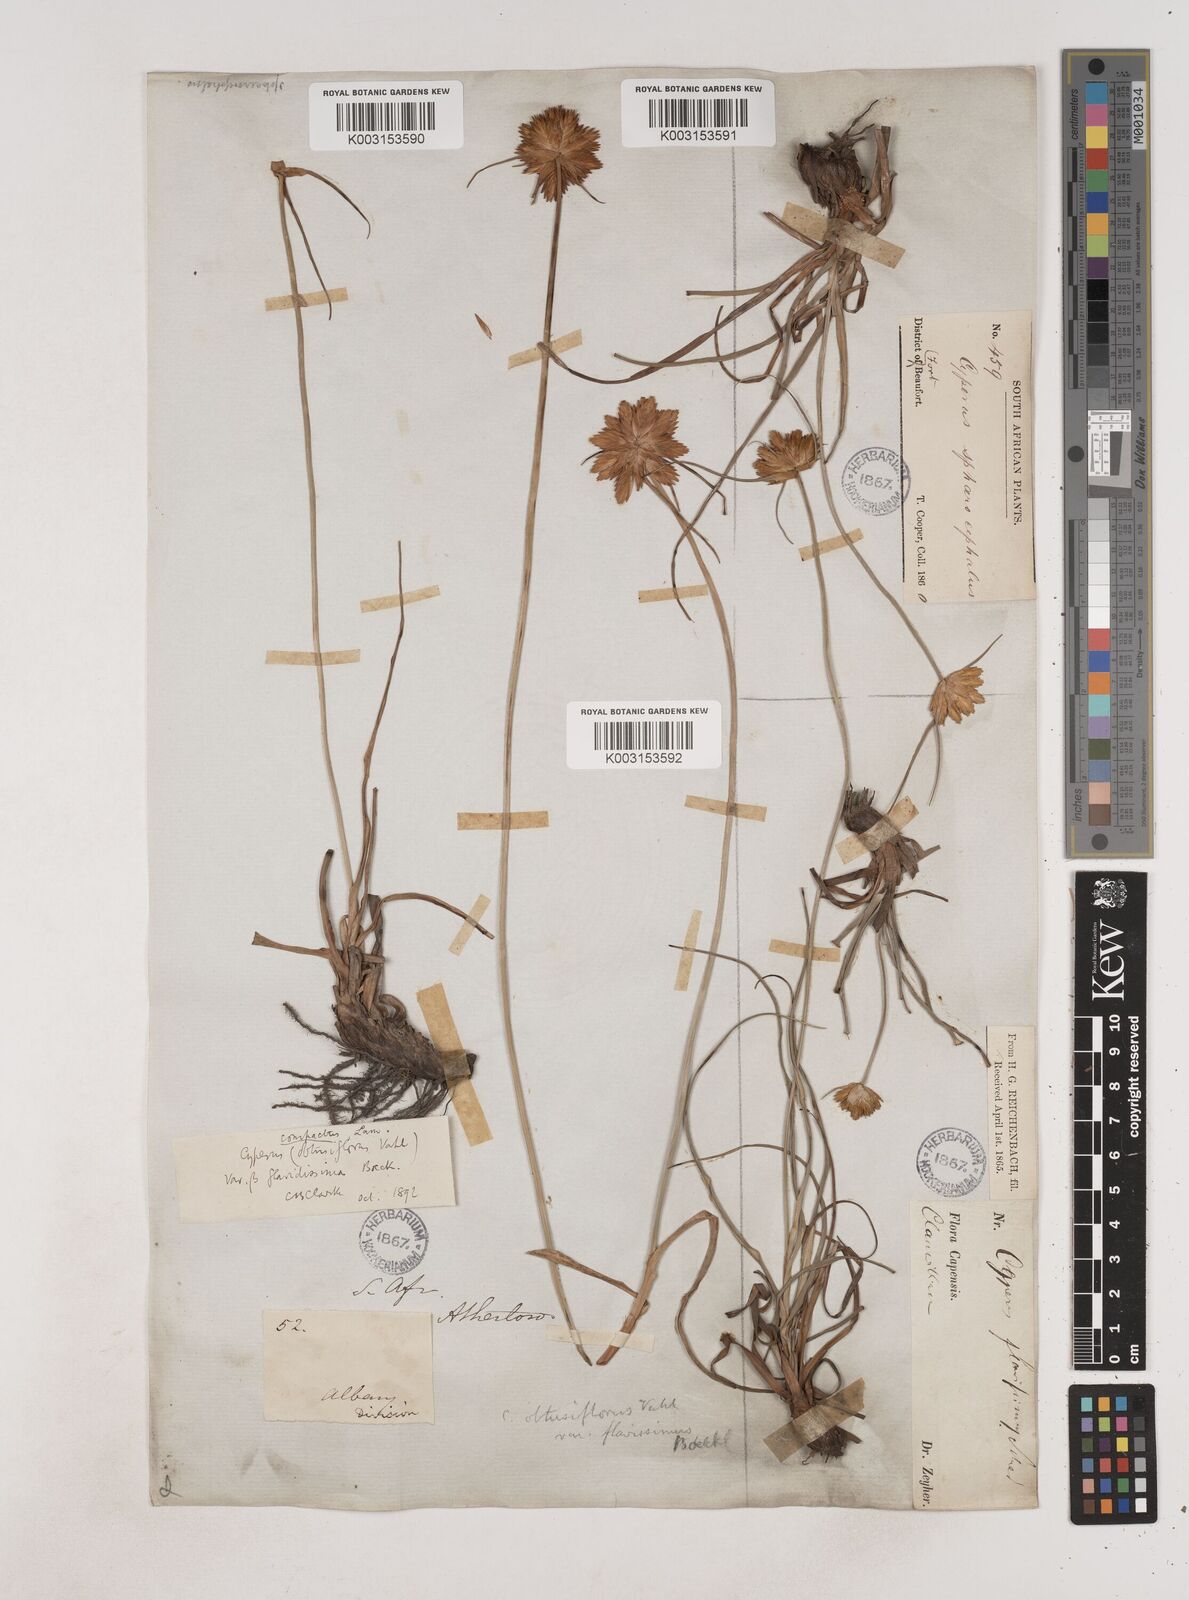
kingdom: Plantae
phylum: Tracheophyta
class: Liliopsida
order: Poales
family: Cyperaceae
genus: Cyperus
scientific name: Cyperus niveus
